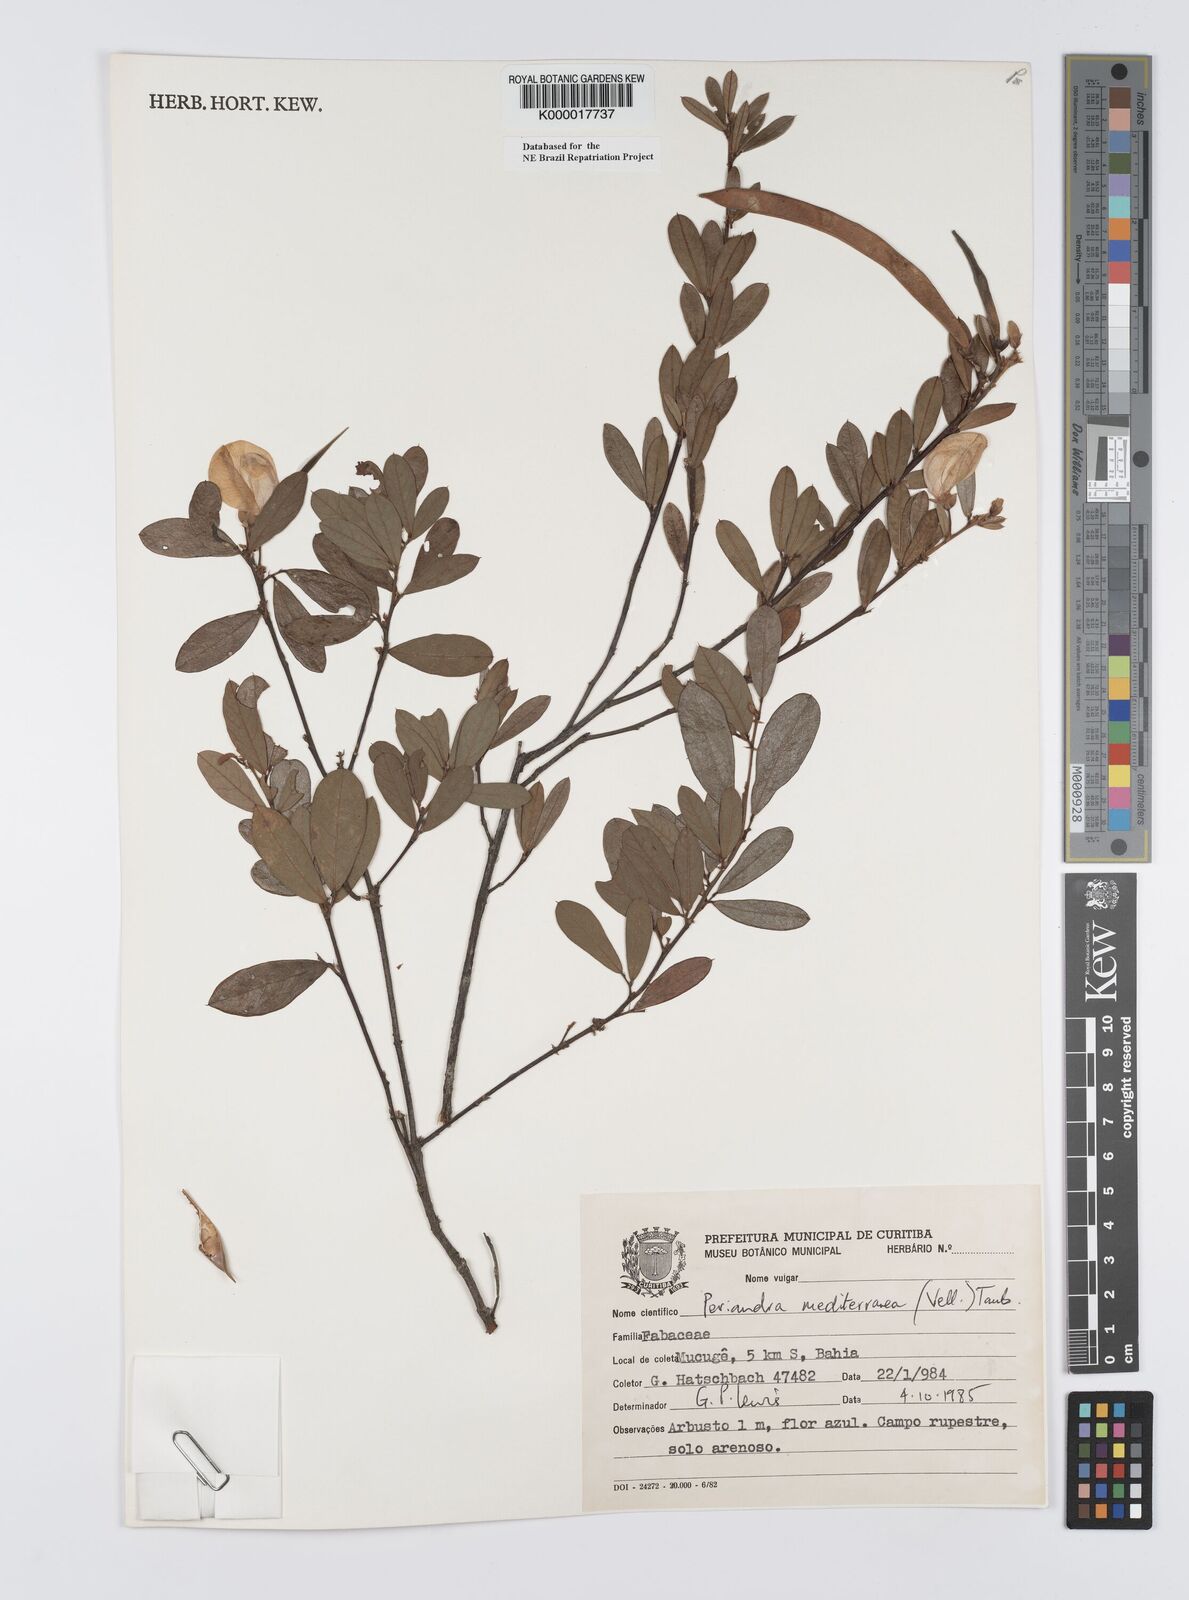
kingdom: Plantae
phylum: Tracheophyta
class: Magnoliopsida
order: Fabales
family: Fabaceae
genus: Periandra
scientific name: Periandra mediterranea
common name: Brazilian licorice
